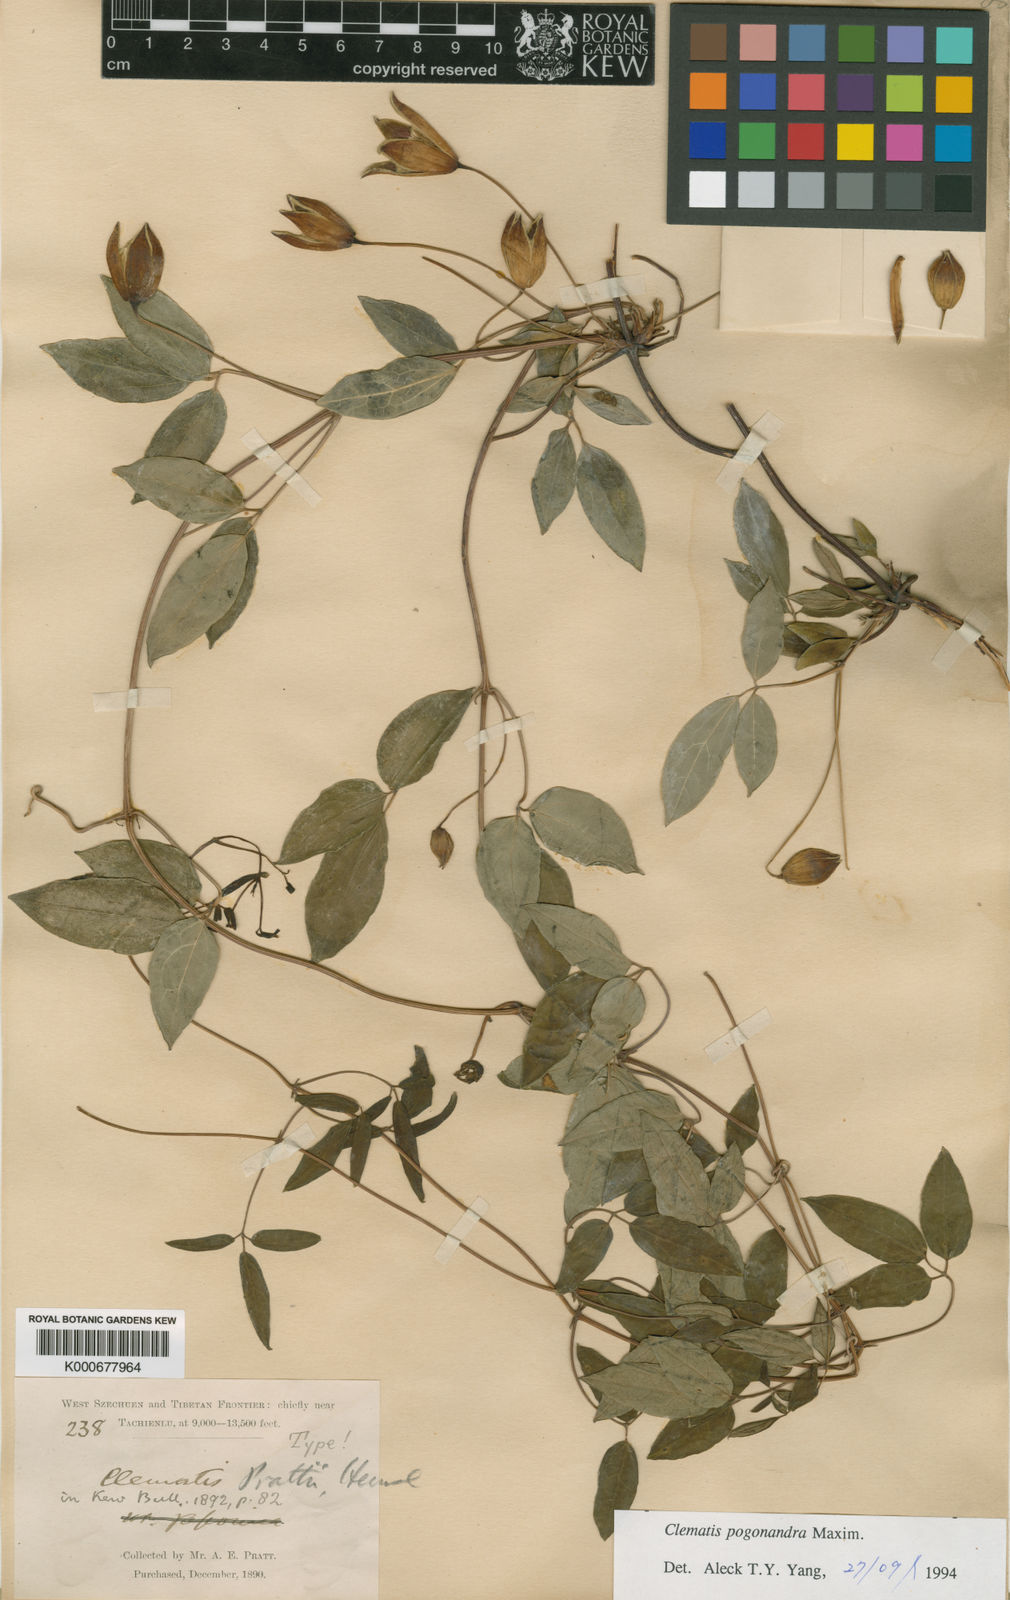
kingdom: Plantae
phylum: Tracheophyta
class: Magnoliopsida
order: Ranunculales
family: Ranunculaceae
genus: Clematis
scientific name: Clematis pogonandra
